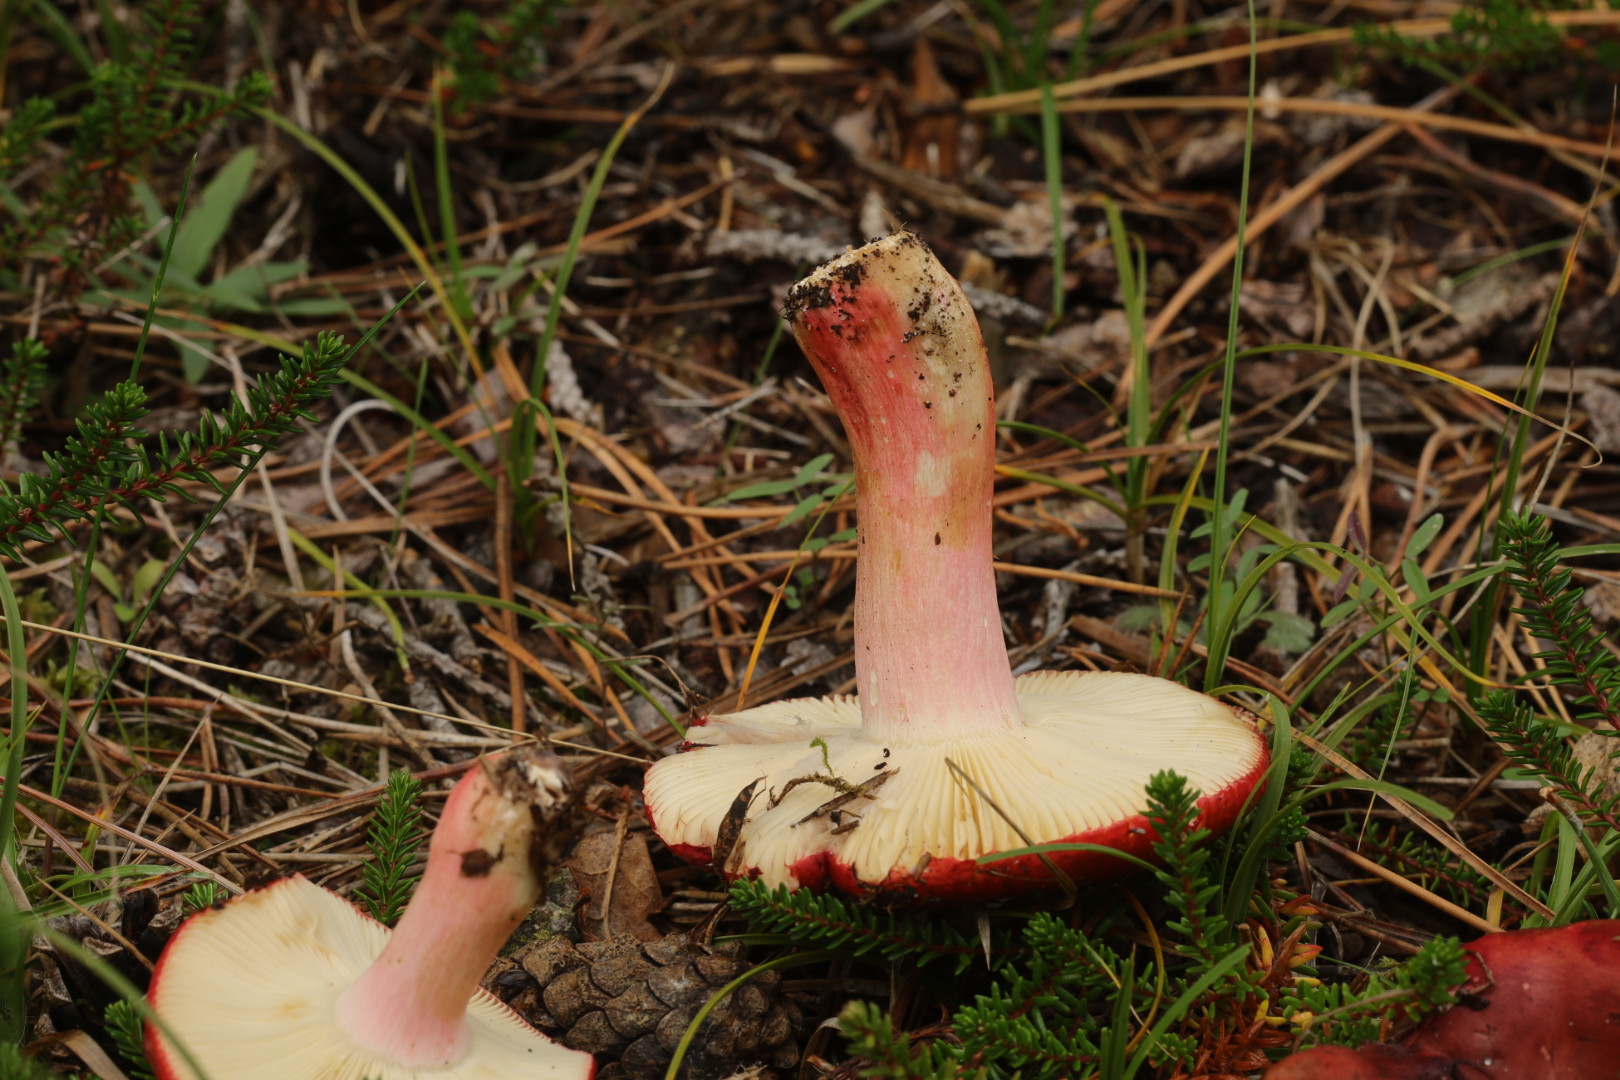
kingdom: Fungi
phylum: Basidiomycota
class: Agaricomycetes
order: Russulales
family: Russulaceae
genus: Russula
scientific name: Russula xerampelina
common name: hummer-skørhat
